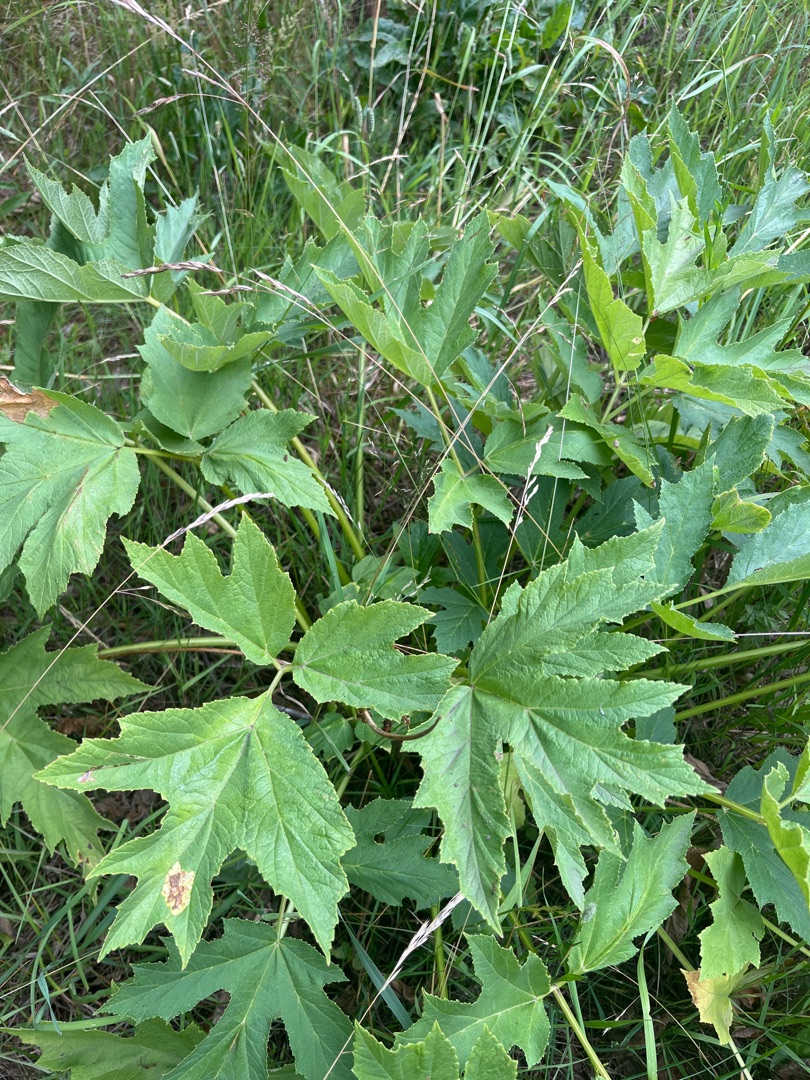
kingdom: Plantae
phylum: Tracheophyta
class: Magnoliopsida
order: Apiales
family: Apiaceae
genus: Heracleum
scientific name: Heracleum
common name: Bjørnekloslægten
